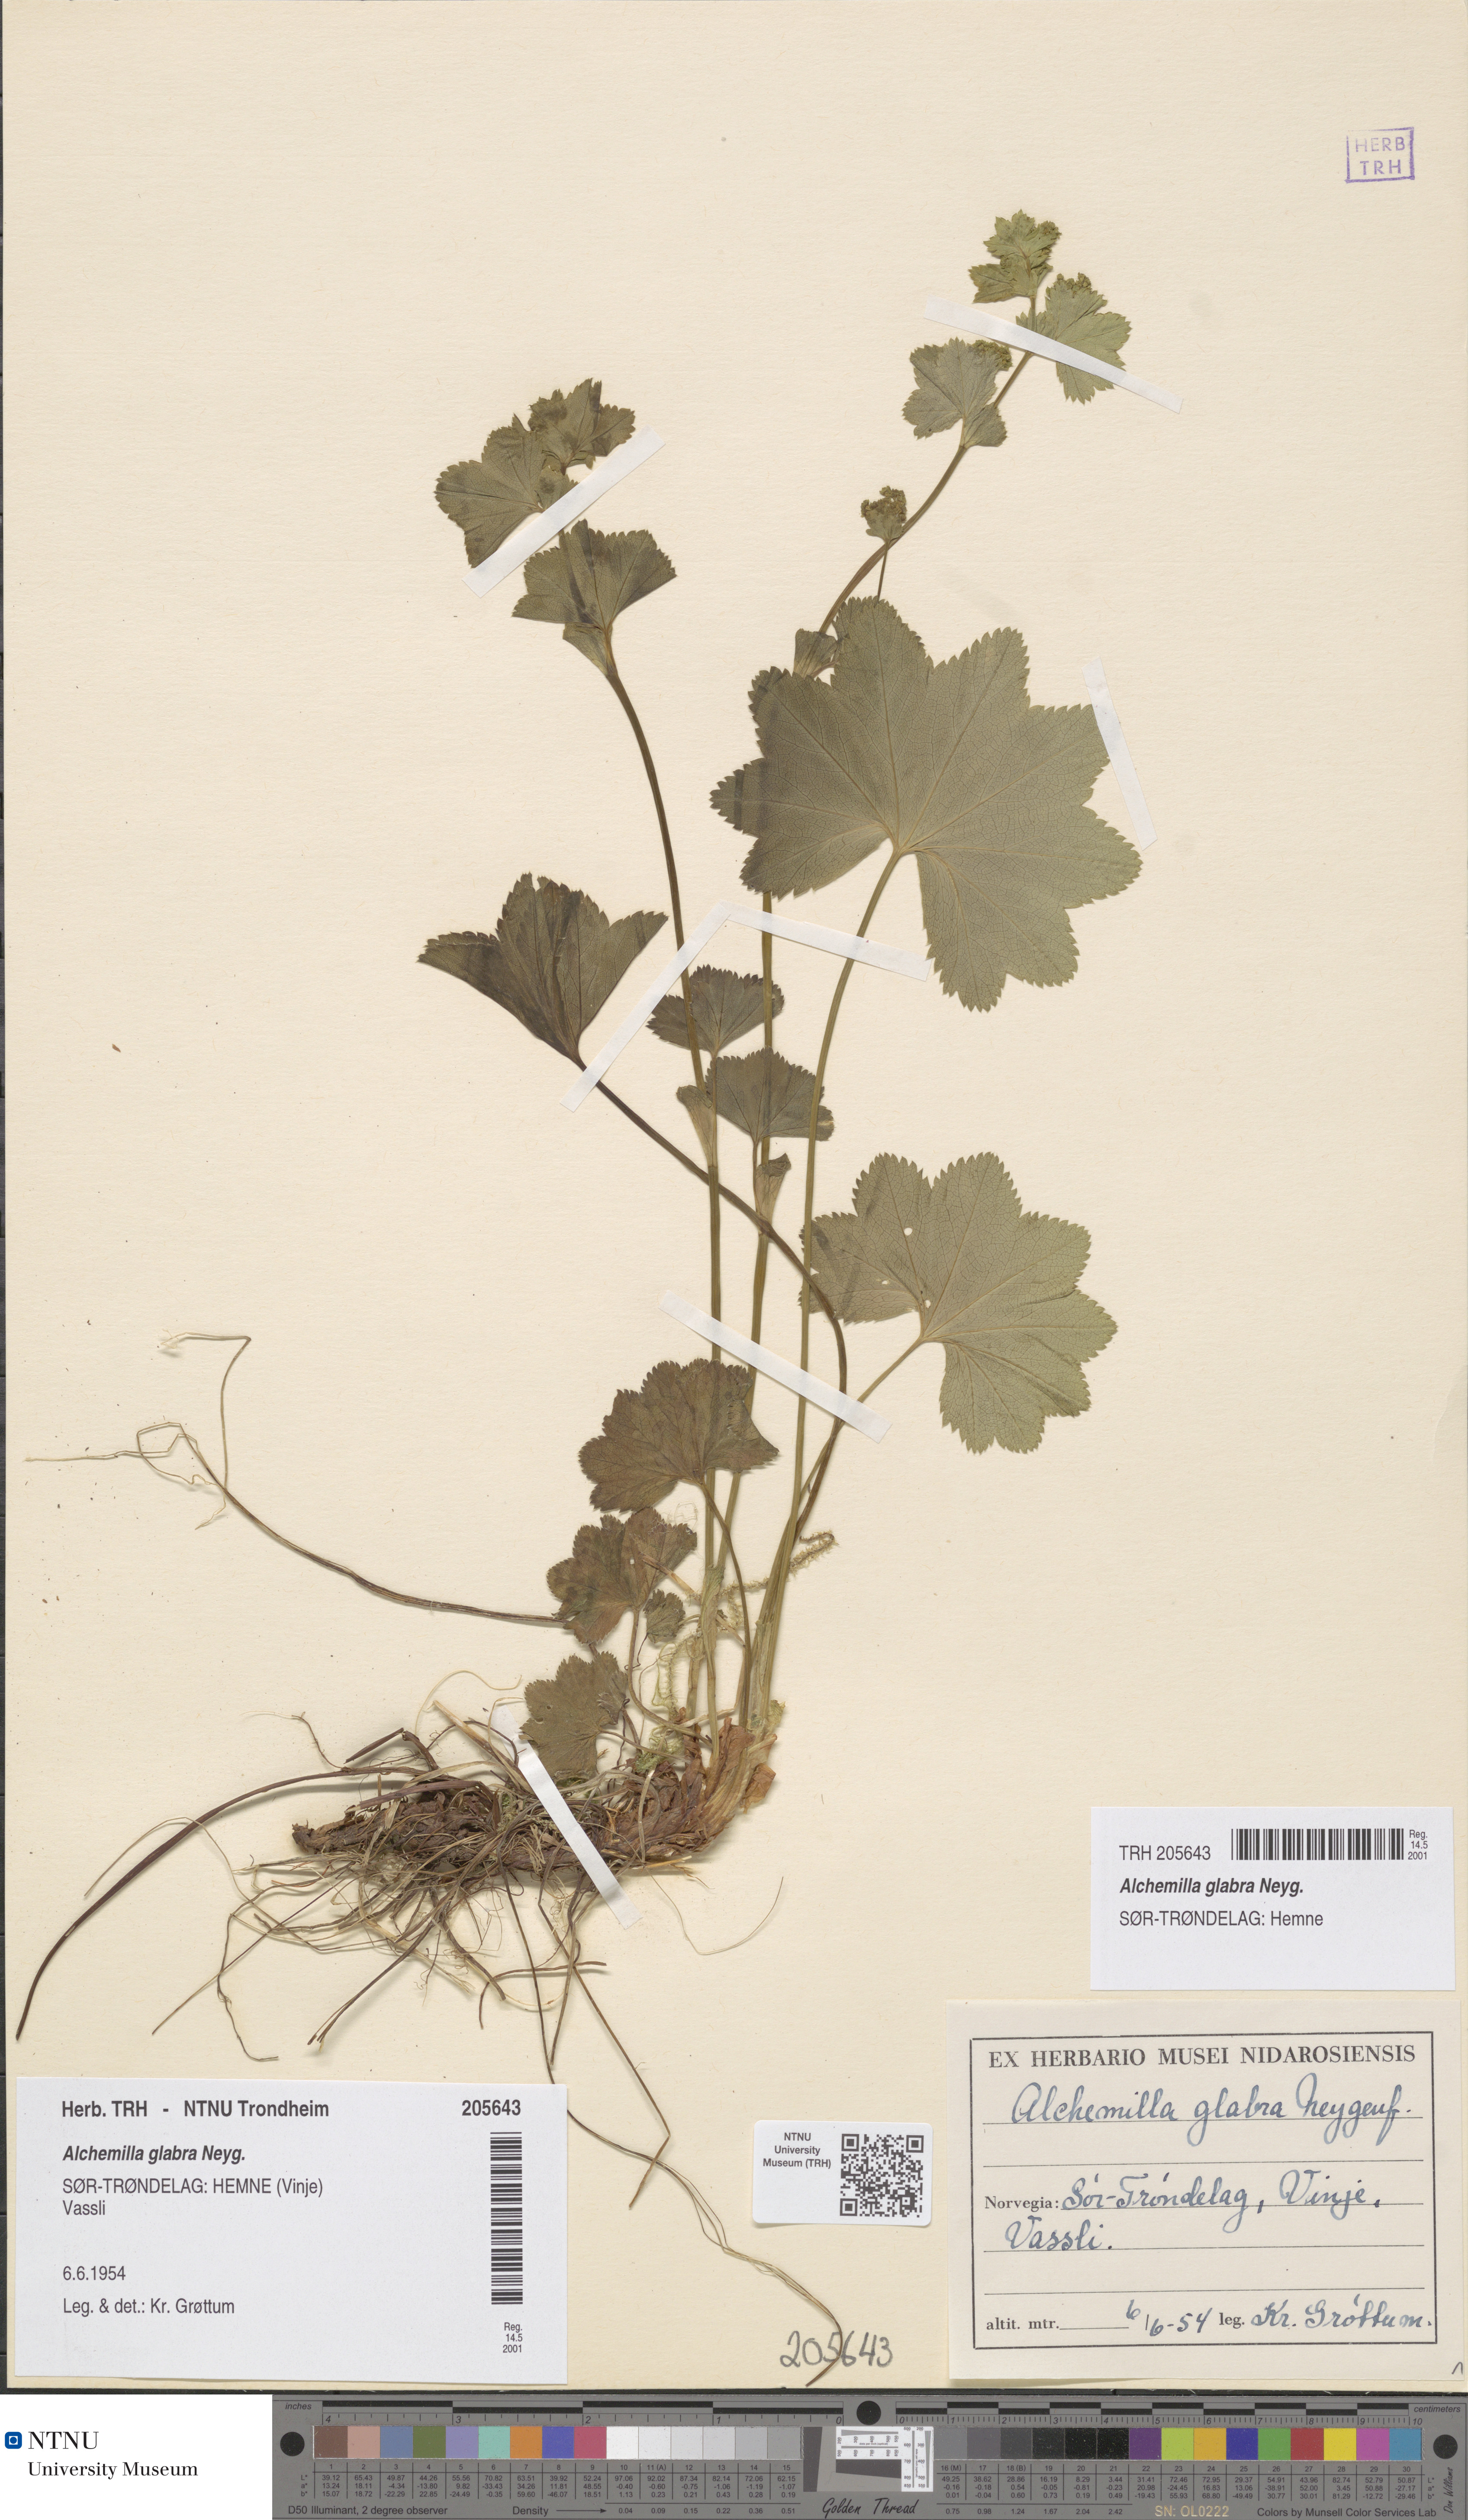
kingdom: Plantae
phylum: Tracheophyta
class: Magnoliopsida
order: Rosales
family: Rosaceae
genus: Alchemilla
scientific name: Alchemilla glabra
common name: Smooth lady's-mantle
